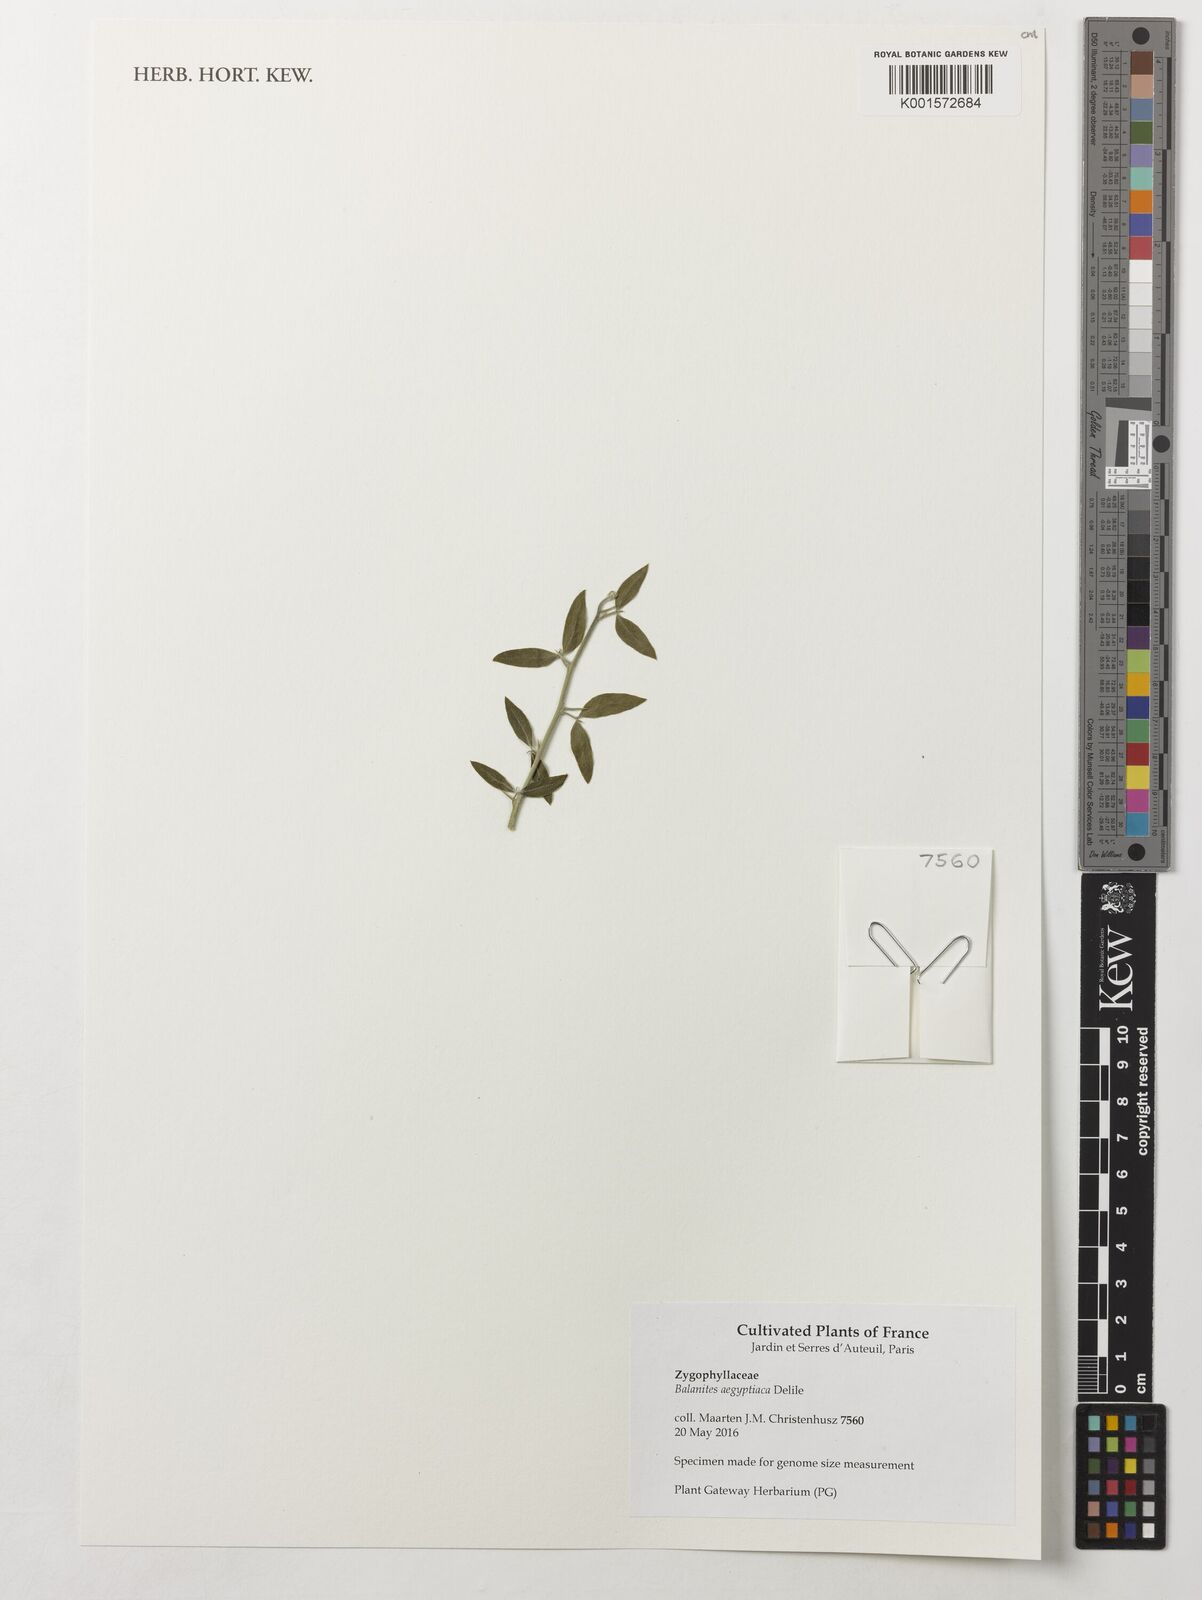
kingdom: Plantae
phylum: Tracheophyta
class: Magnoliopsida
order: Zygophyllales
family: Zygophyllaceae
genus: Balanites
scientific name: Balanites aegyptiaca
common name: Balanites
